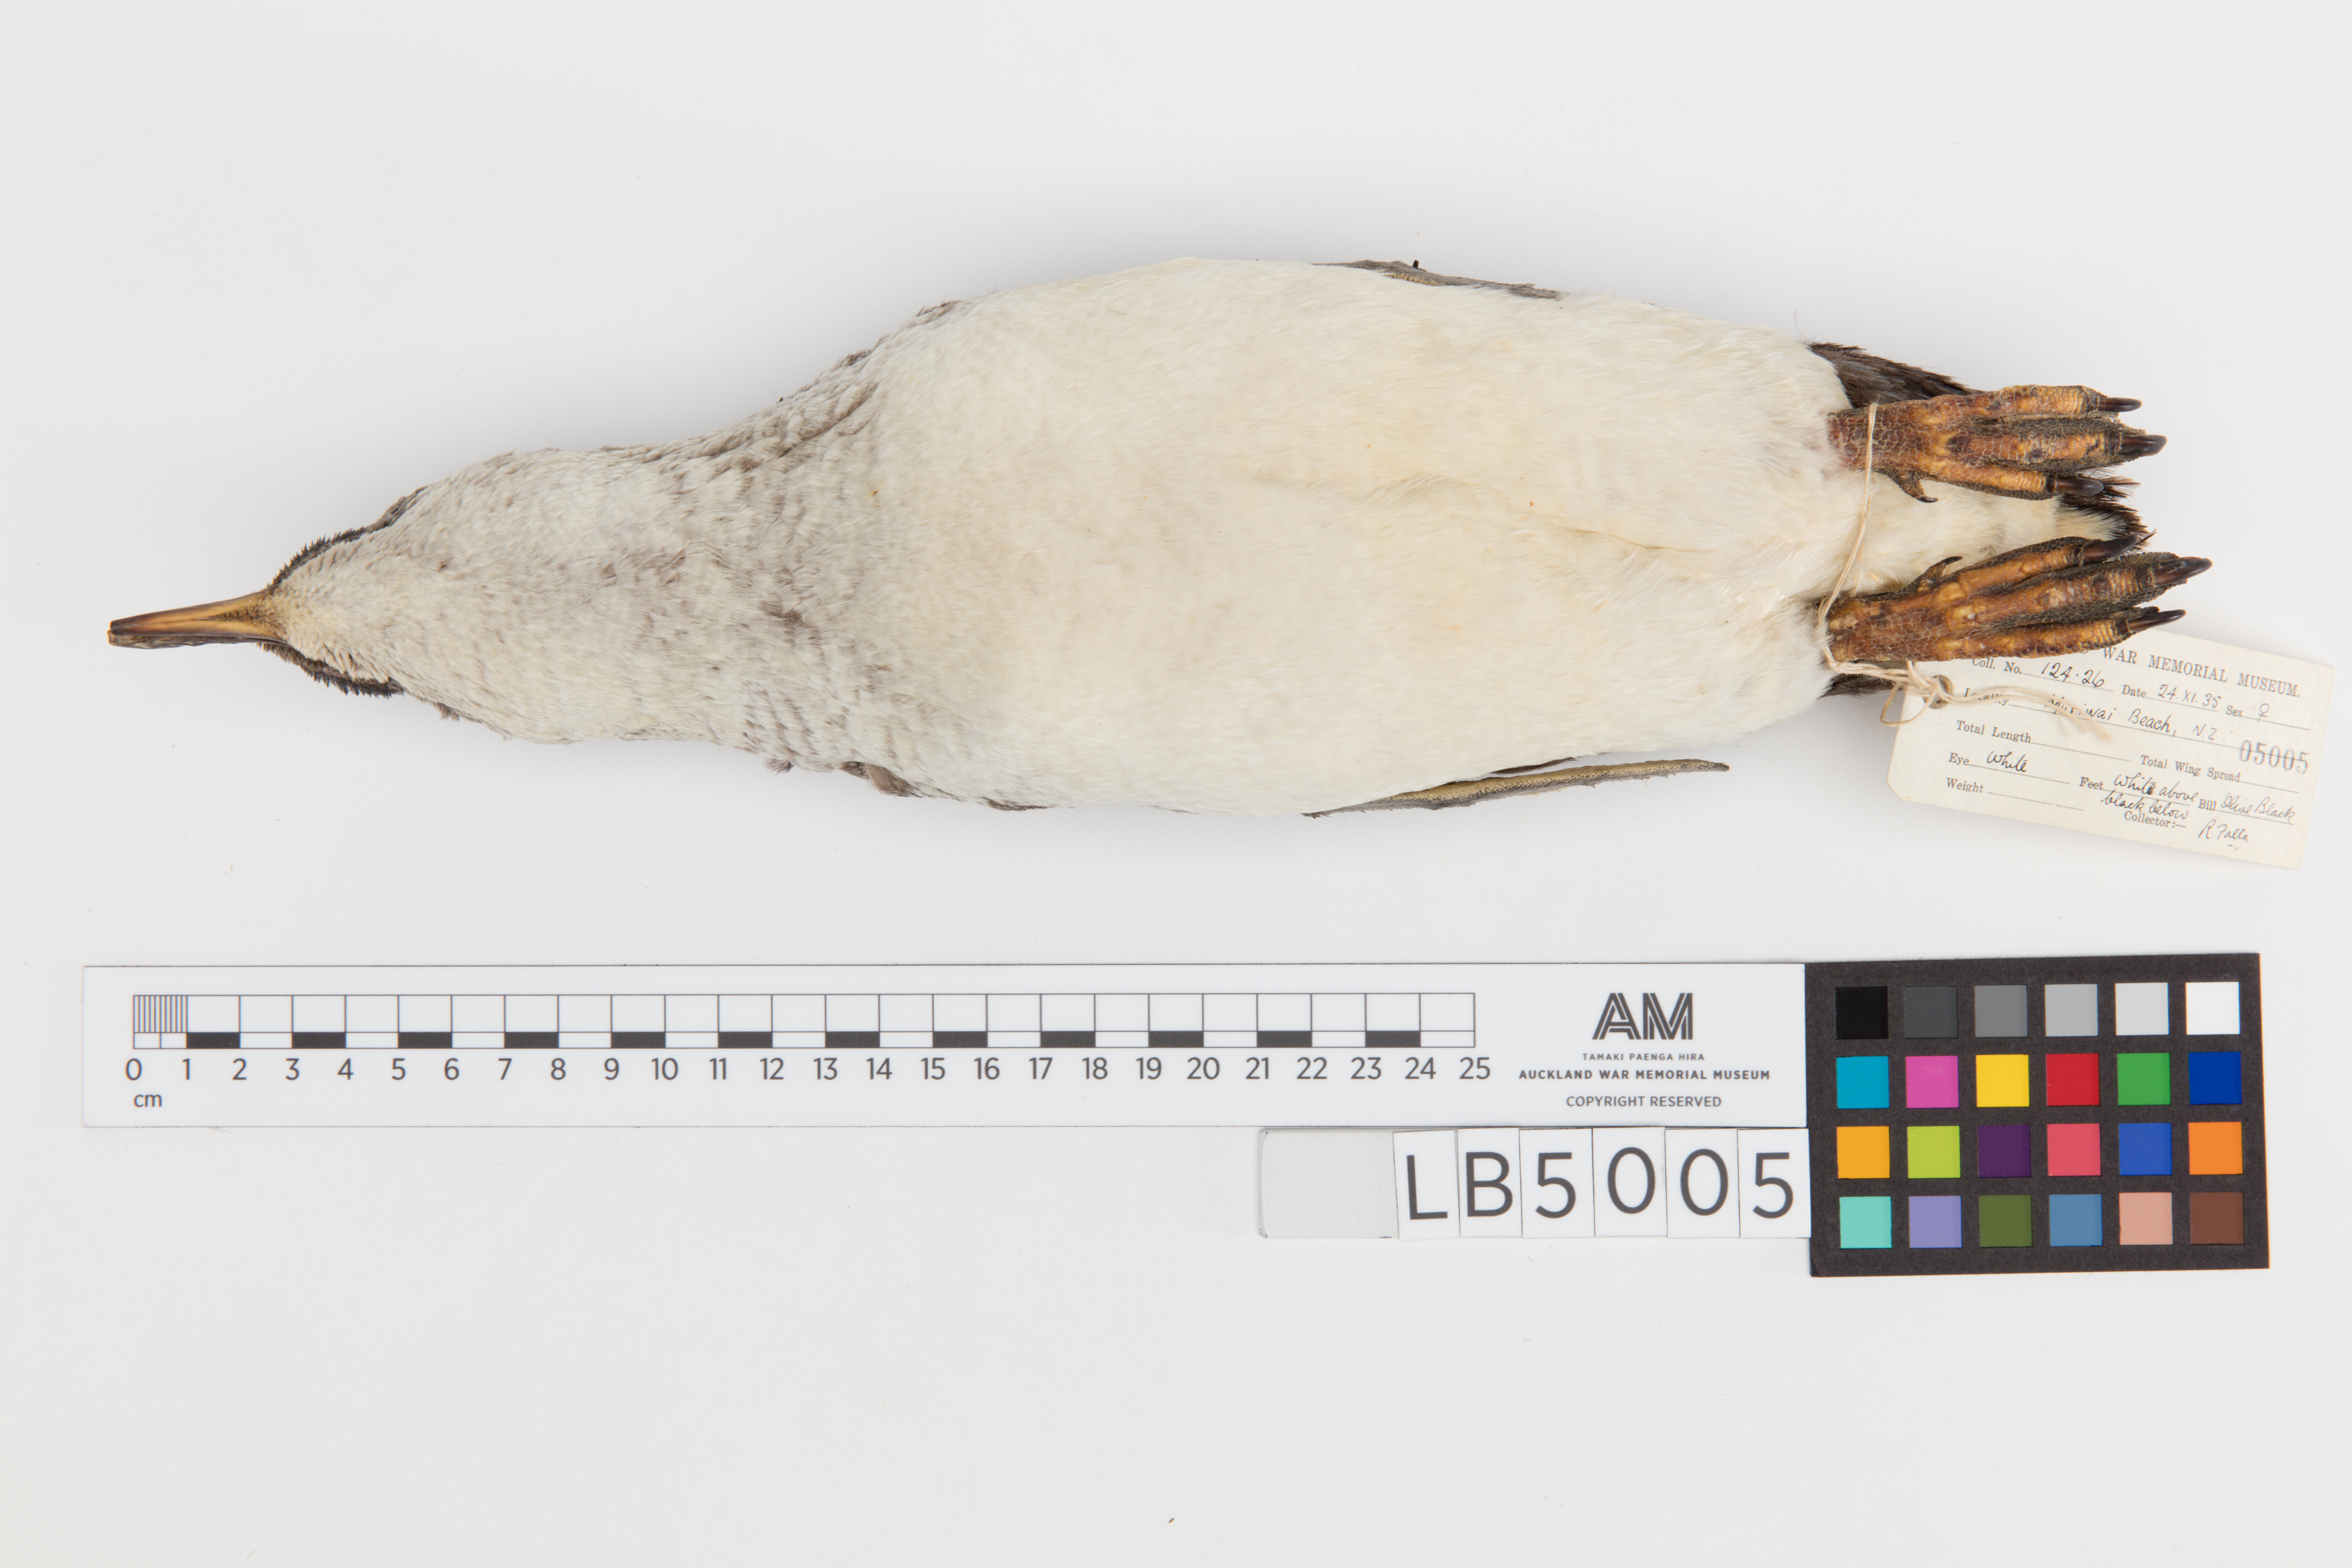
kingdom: Animalia
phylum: Chordata
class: Aves
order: Sphenisciformes
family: Spheniscidae
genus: Eudyptula
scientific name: Eudyptula minor
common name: Little penguin
